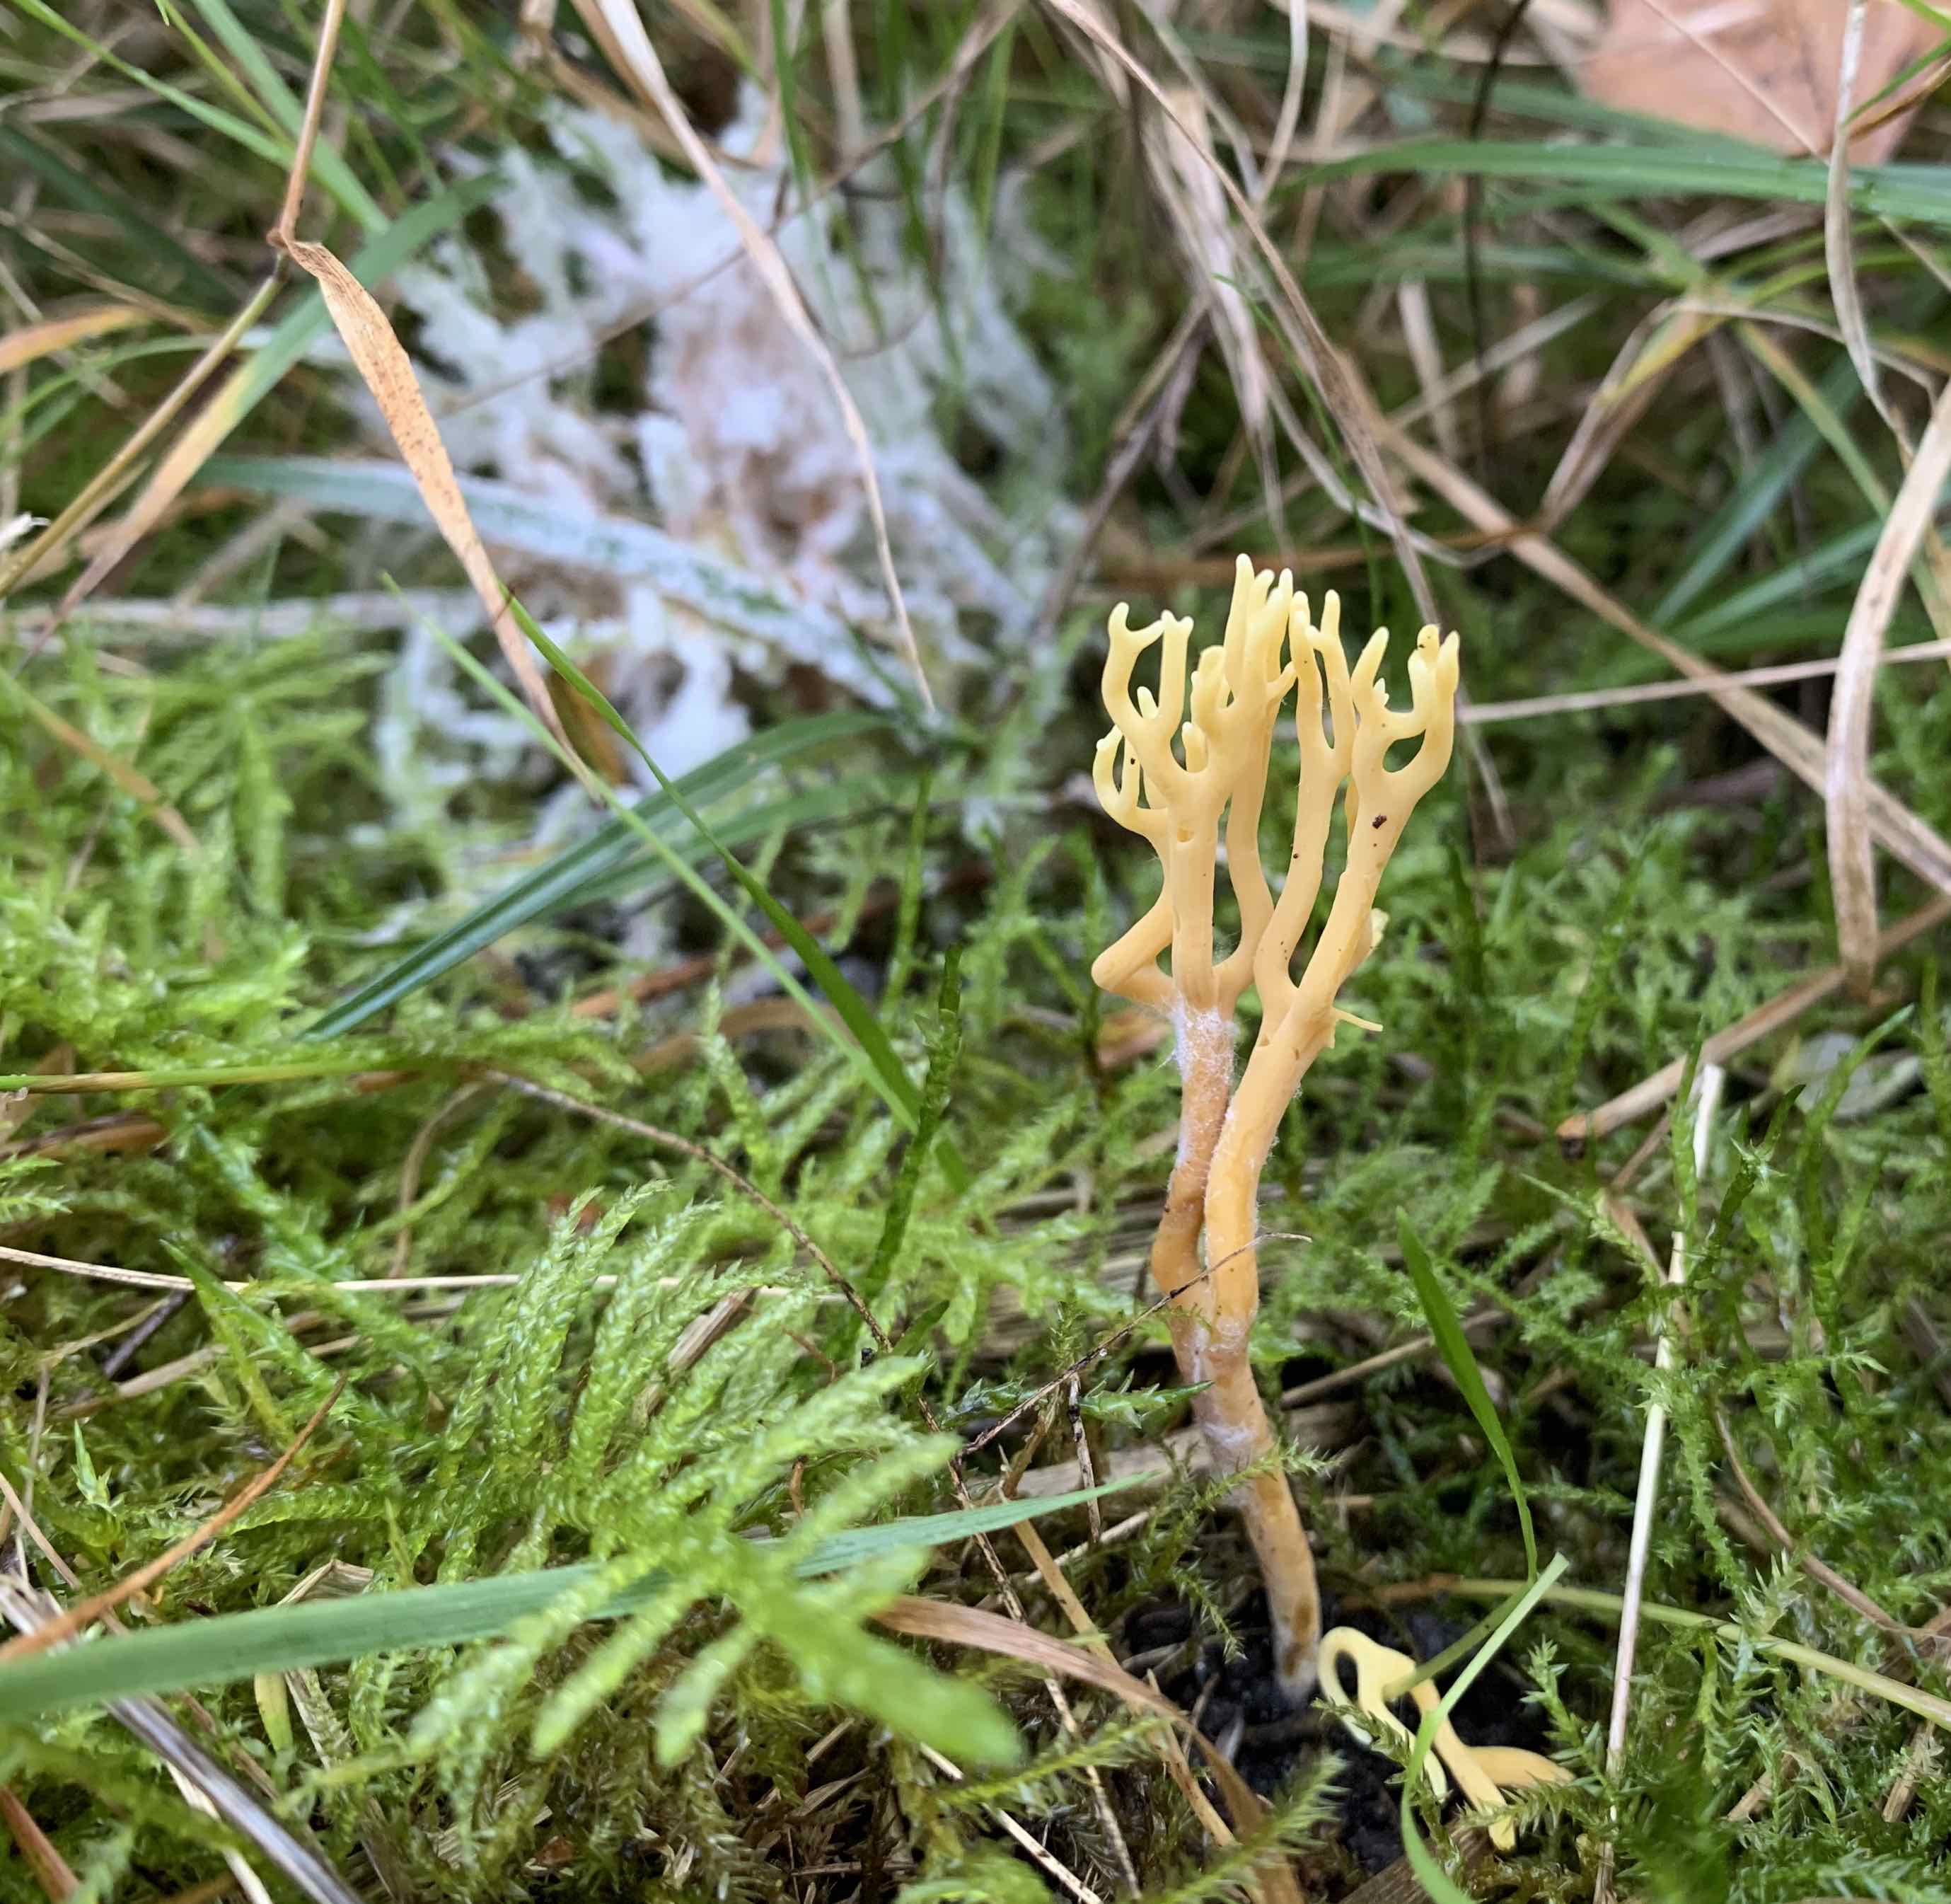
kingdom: Fungi
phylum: Basidiomycota
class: Agaricomycetes
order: Agaricales
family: Clavariaceae
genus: Clavulinopsis
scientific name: Clavulinopsis corniculata
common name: eng-køllesvamp
